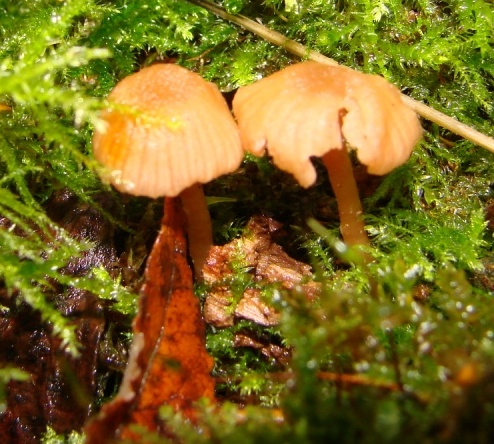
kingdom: Fungi
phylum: Basidiomycota
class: Agaricomycetes
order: Agaricales
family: Hydnangiaceae
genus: Laccaria
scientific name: Laccaria laccata
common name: rød ametysthat
